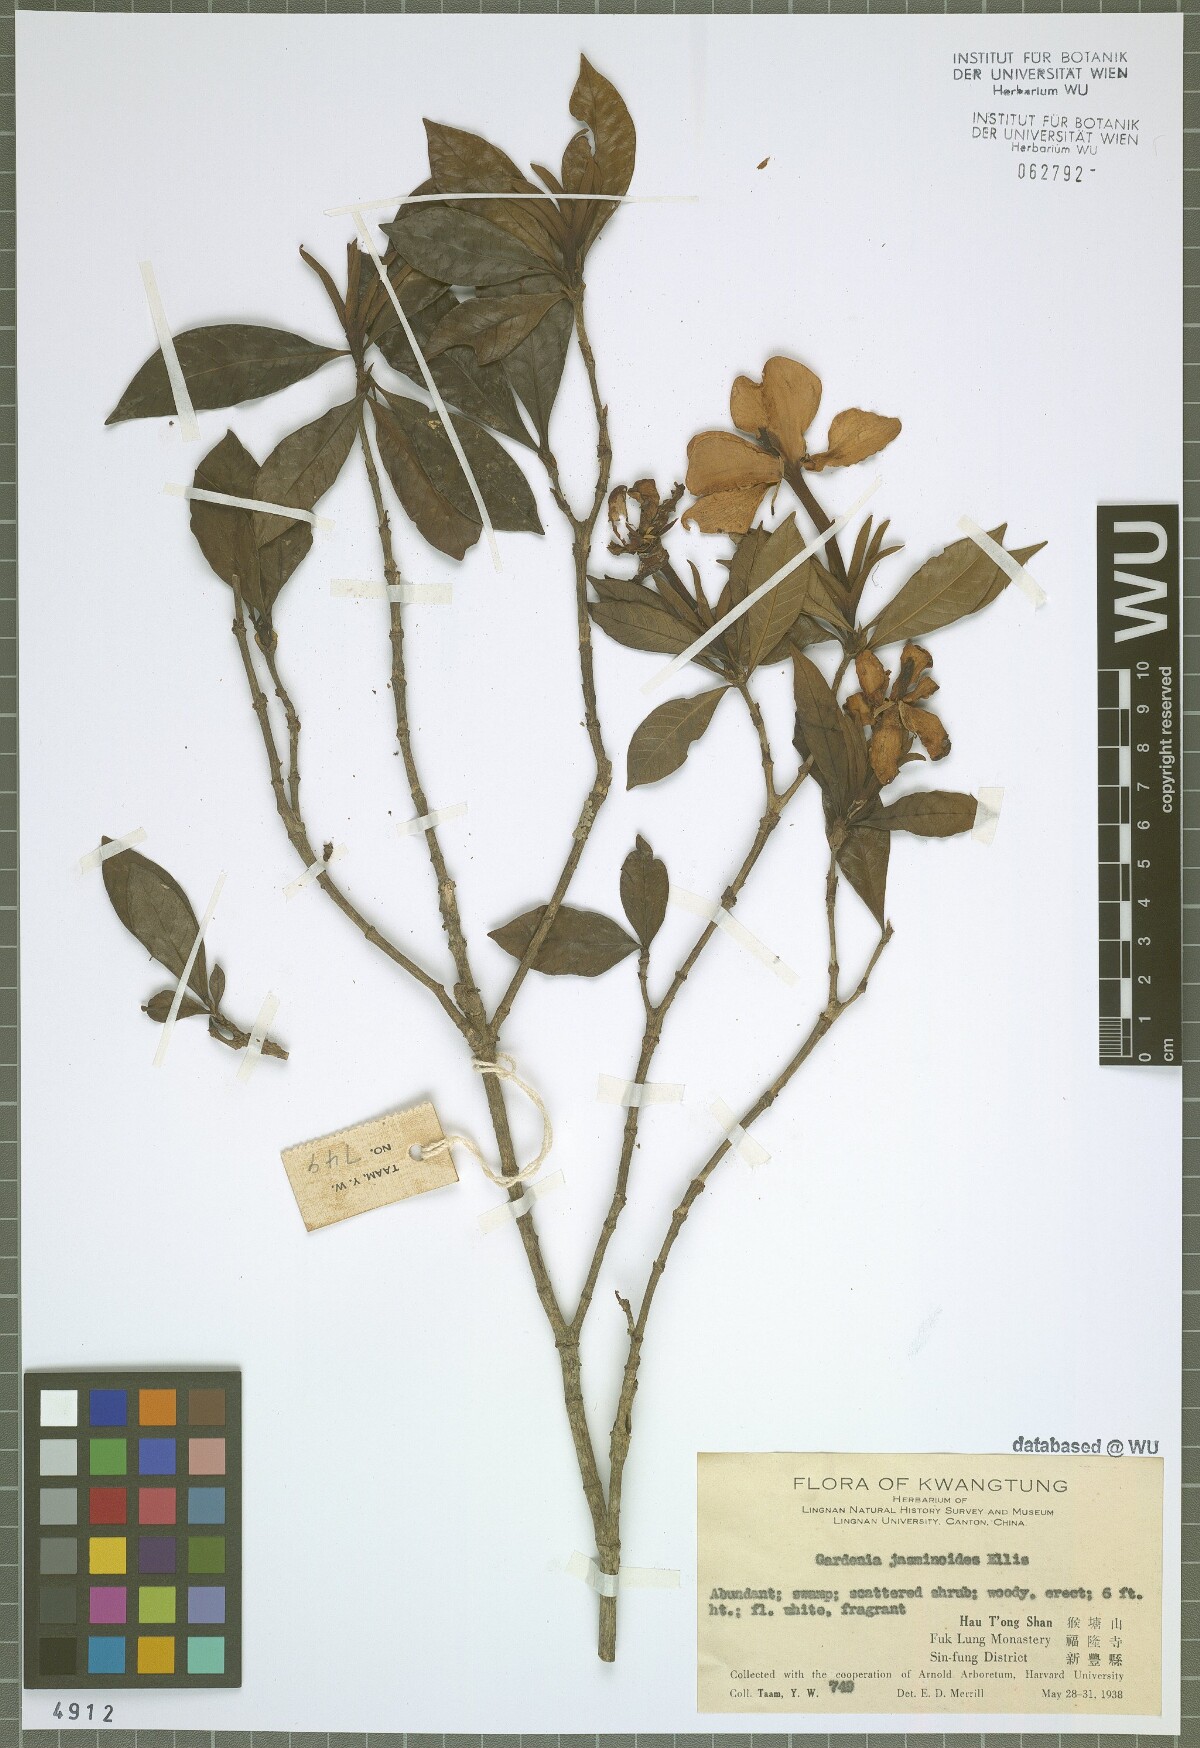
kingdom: Plantae
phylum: Tracheophyta
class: Magnoliopsida
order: Gentianales
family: Rubiaceae
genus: Gardenia
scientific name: Gardenia jasminoides
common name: Cape-jasmine
